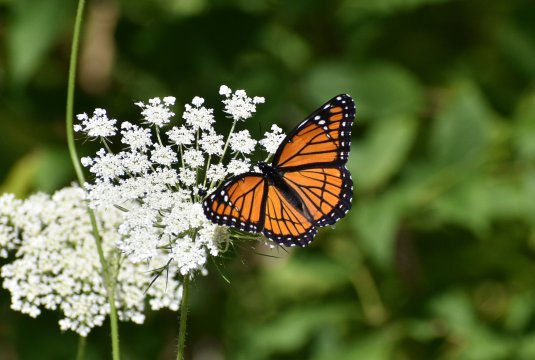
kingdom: Animalia
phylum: Arthropoda
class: Insecta
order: Lepidoptera
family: Nymphalidae
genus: Limenitis
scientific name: Limenitis archippus
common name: Viceroy
